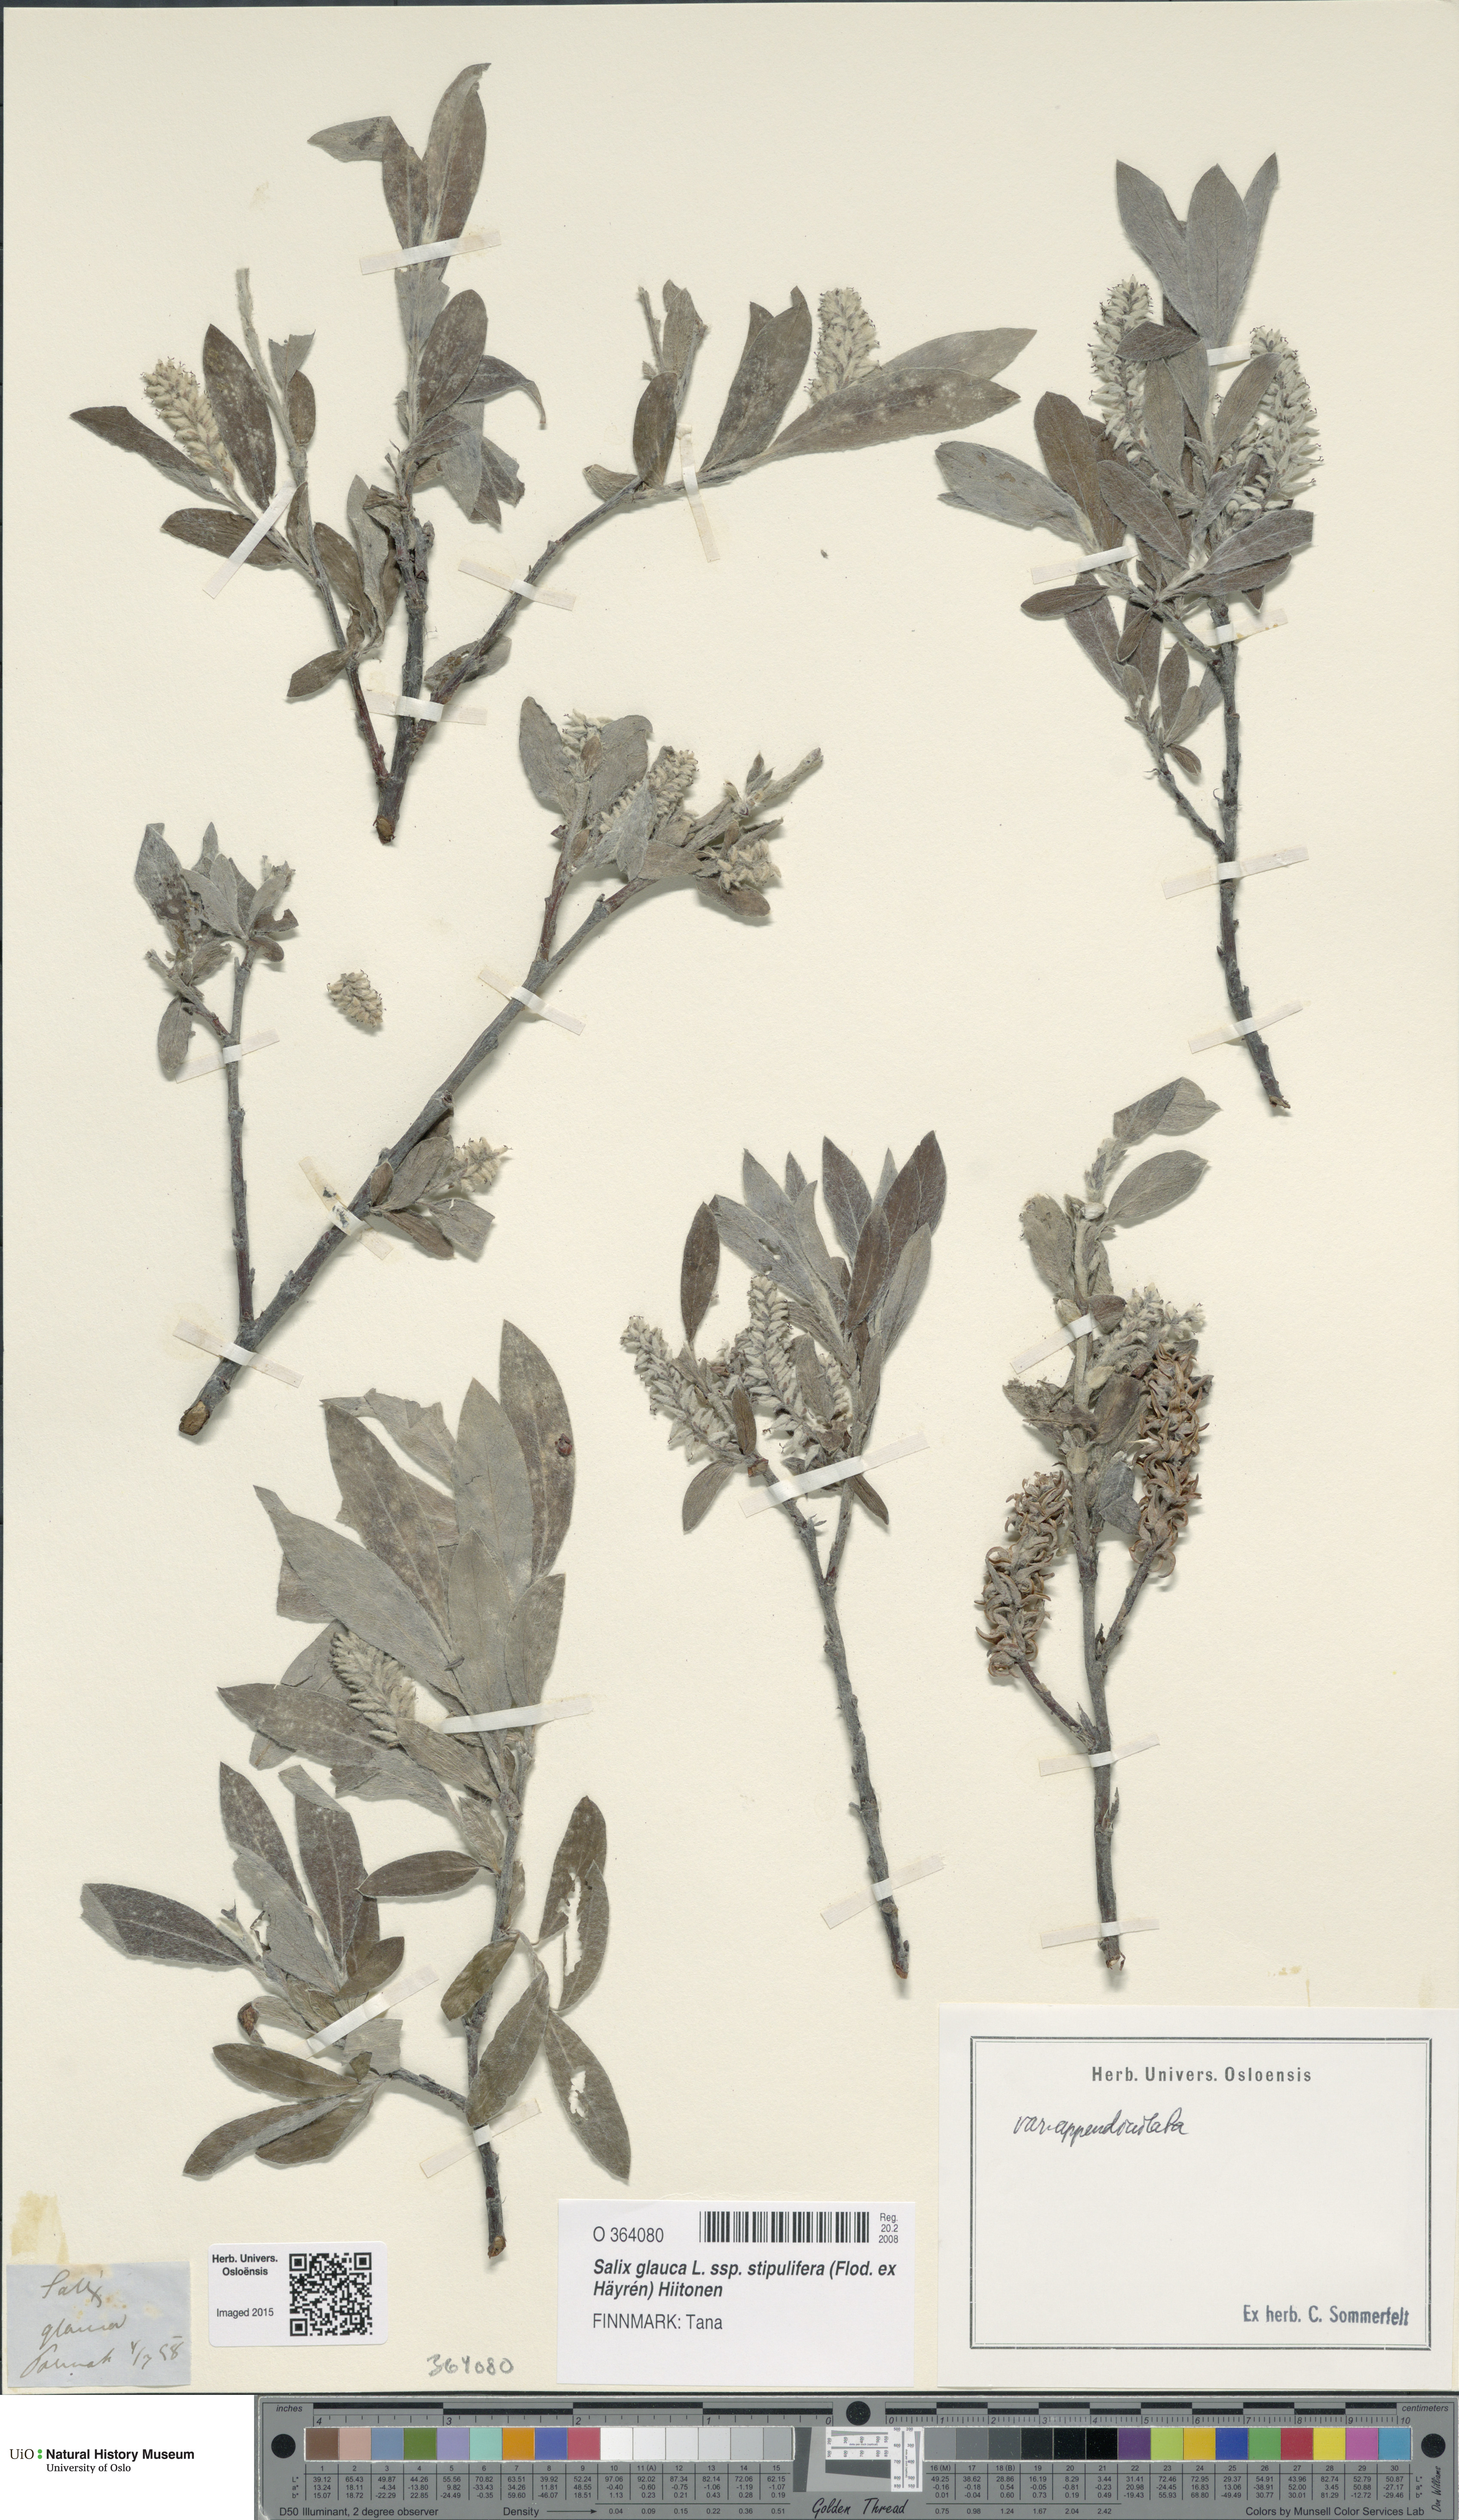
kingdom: Plantae
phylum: Tracheophyta
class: Magnoliopsida
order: Malpighiales
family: Salicaceae
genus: Salix
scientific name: Salix glauca
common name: Glaucous willow
